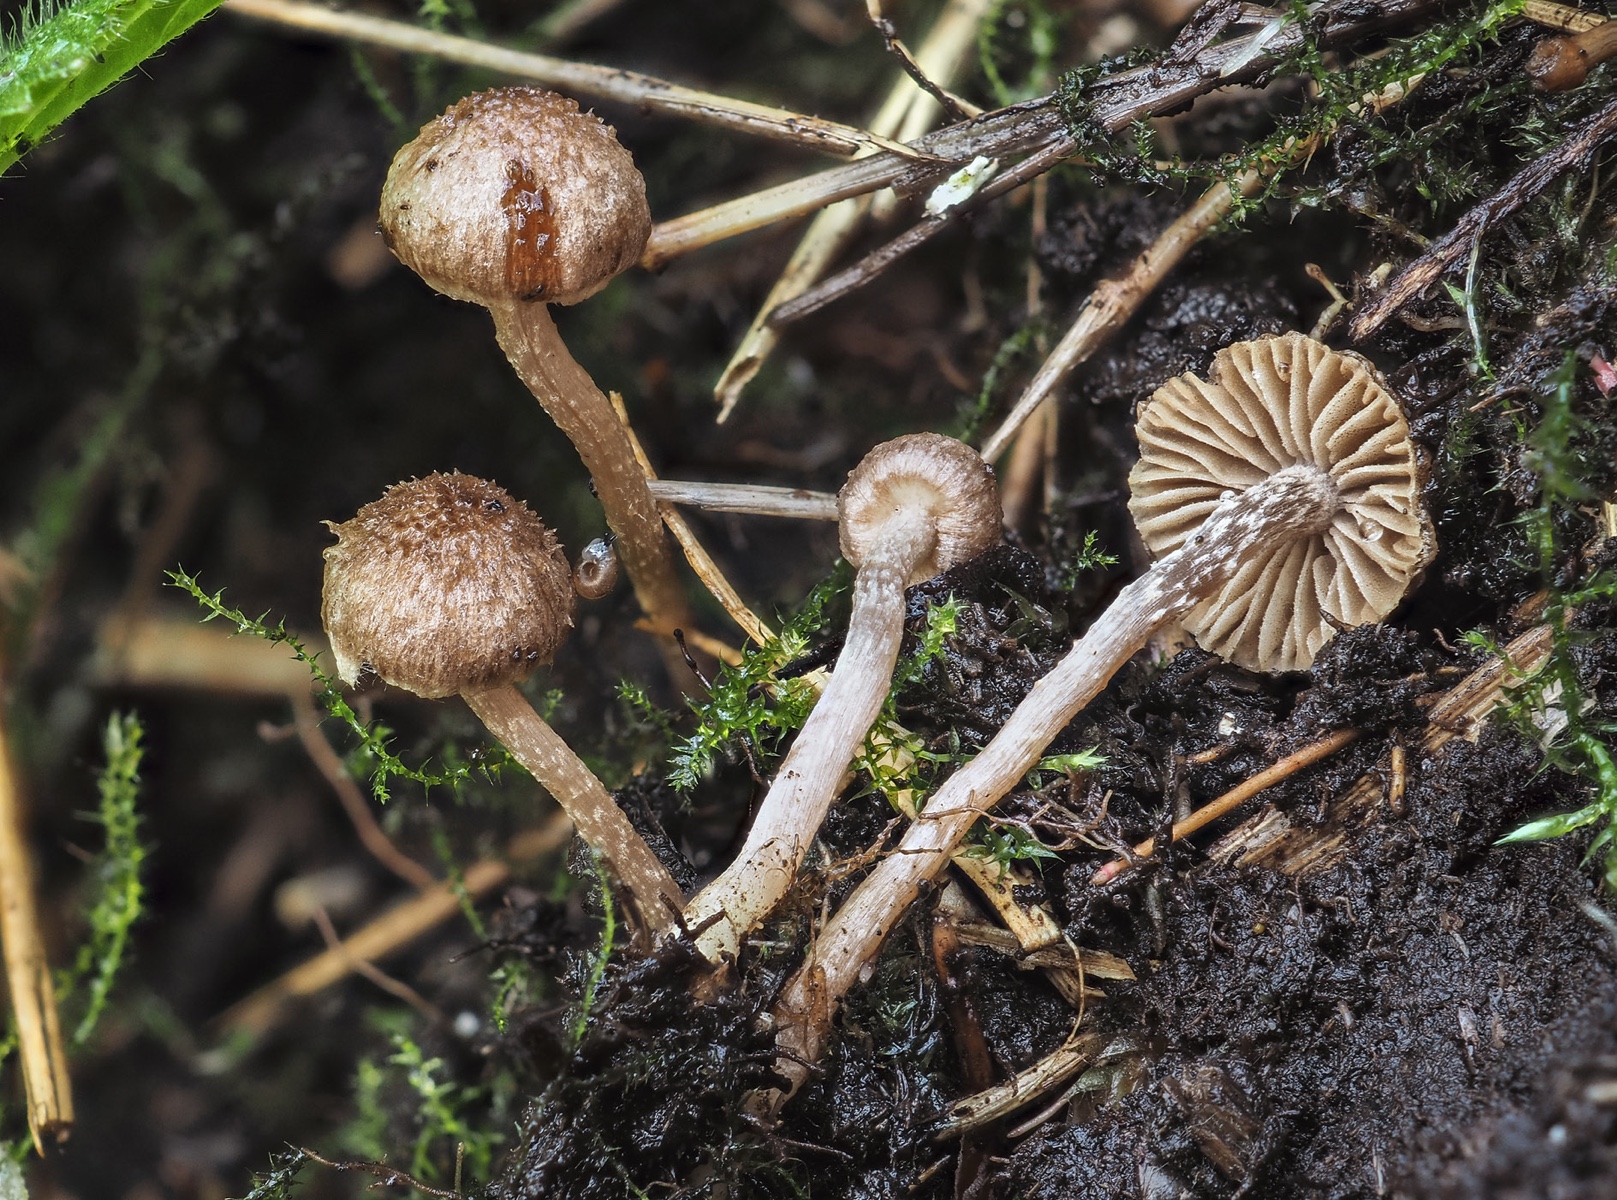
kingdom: Fungi
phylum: Basidiomycota
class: Agaricomycetes
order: Agaricales
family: Inocybaceae
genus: Inocybe
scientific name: Inocybe squarrosa
